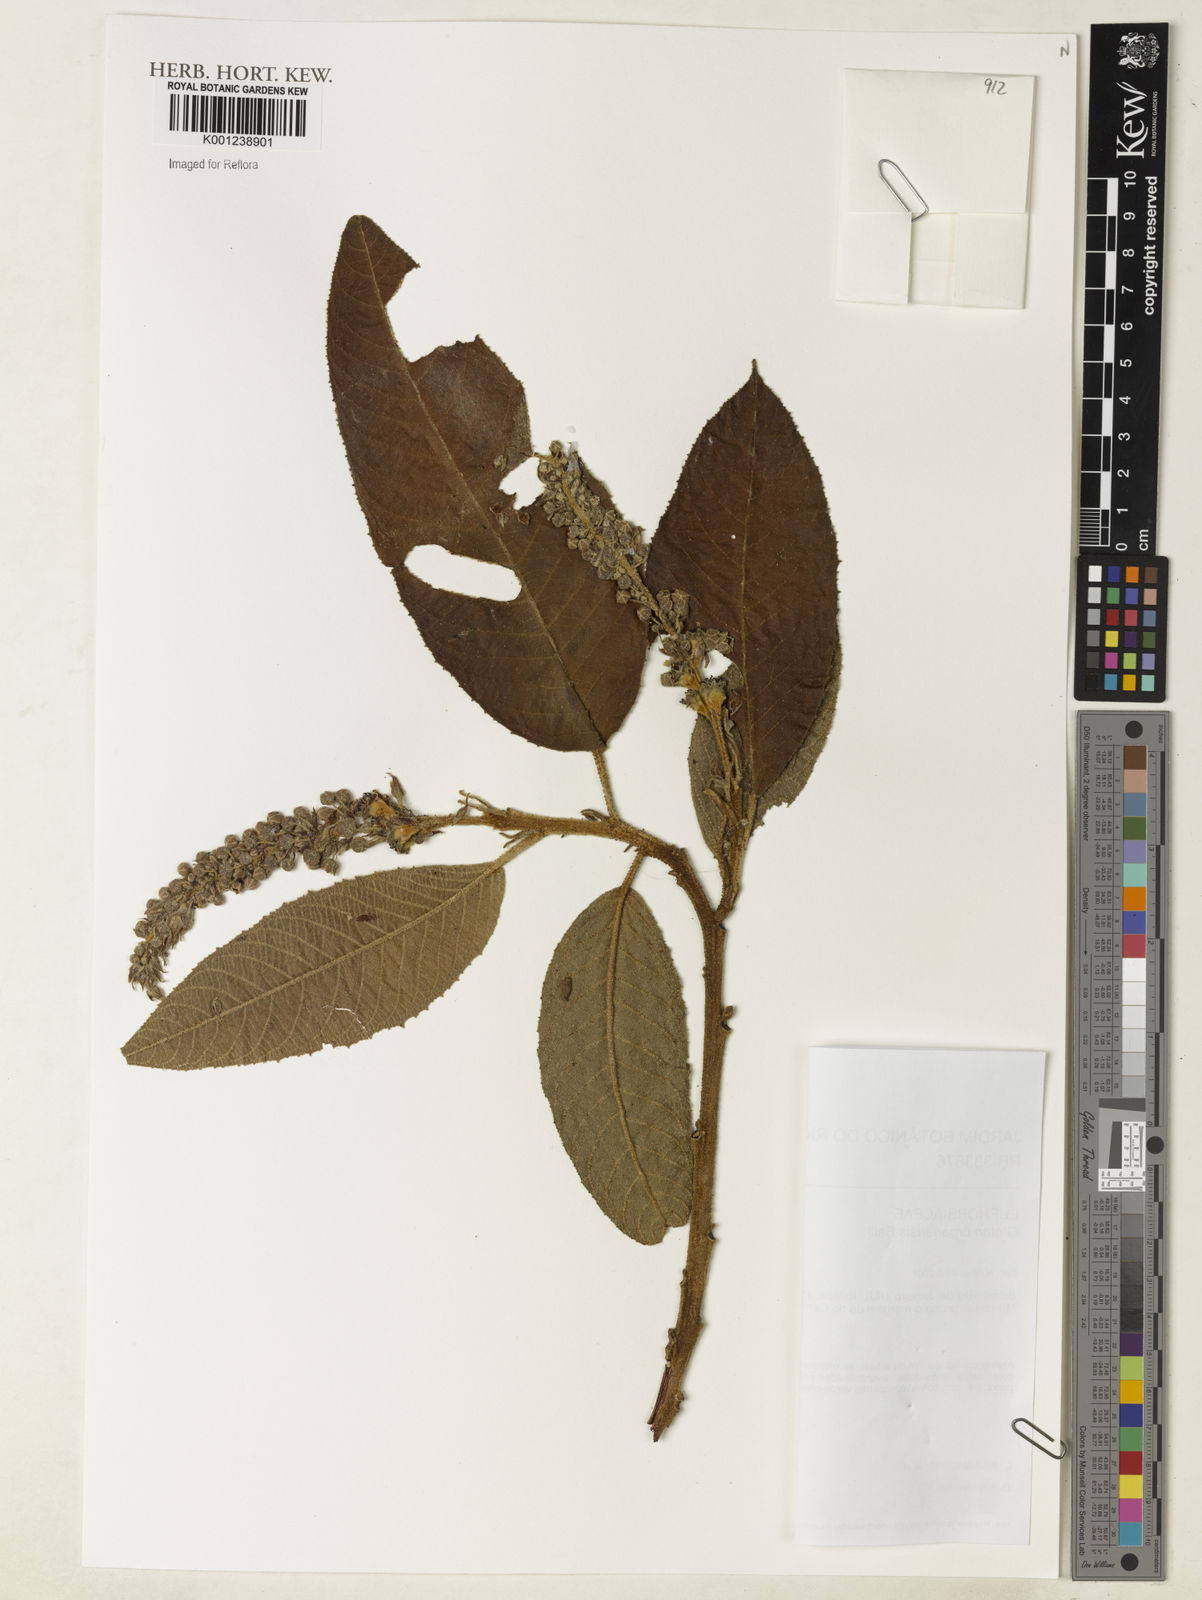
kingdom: Plantae
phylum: Tracheophyta
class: Magnoliopsida
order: Malpighiales
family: Euphorbiaceae
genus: Croton
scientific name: Croton organensis
